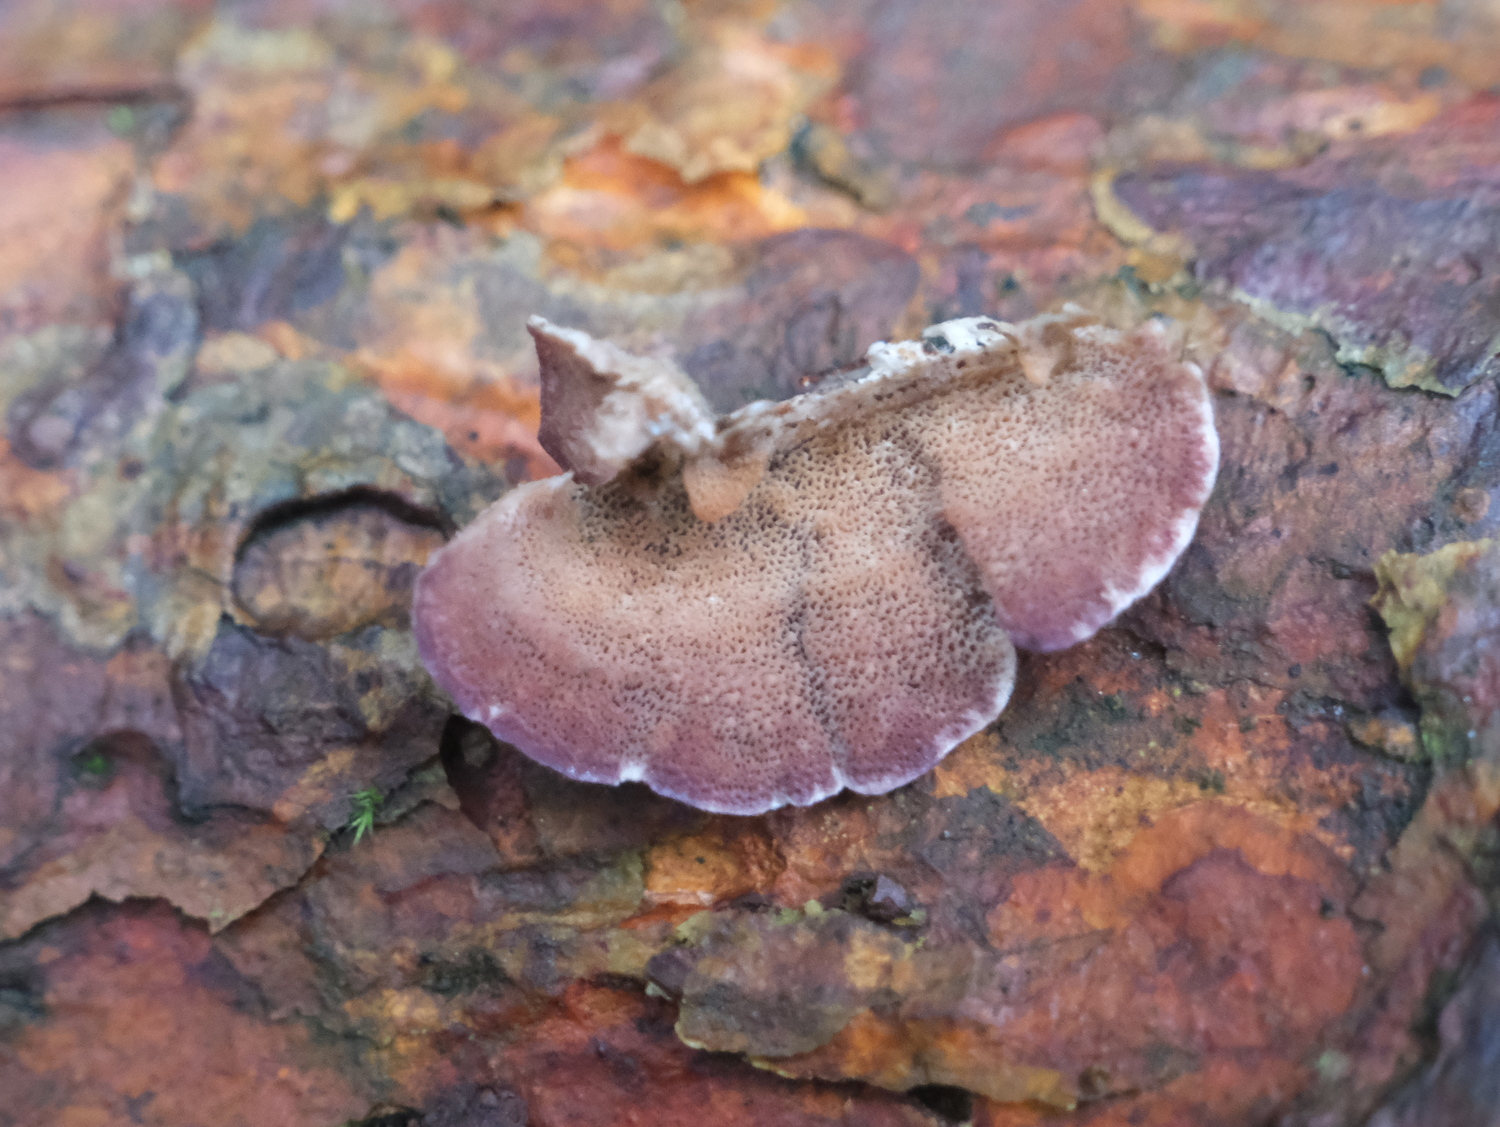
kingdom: Fungi
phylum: Basidiomycota
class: Agaricomycetes
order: Hymenochaetales
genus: Trichaptum
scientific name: Trichaptum abietinum
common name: almindelig violporesvamp
